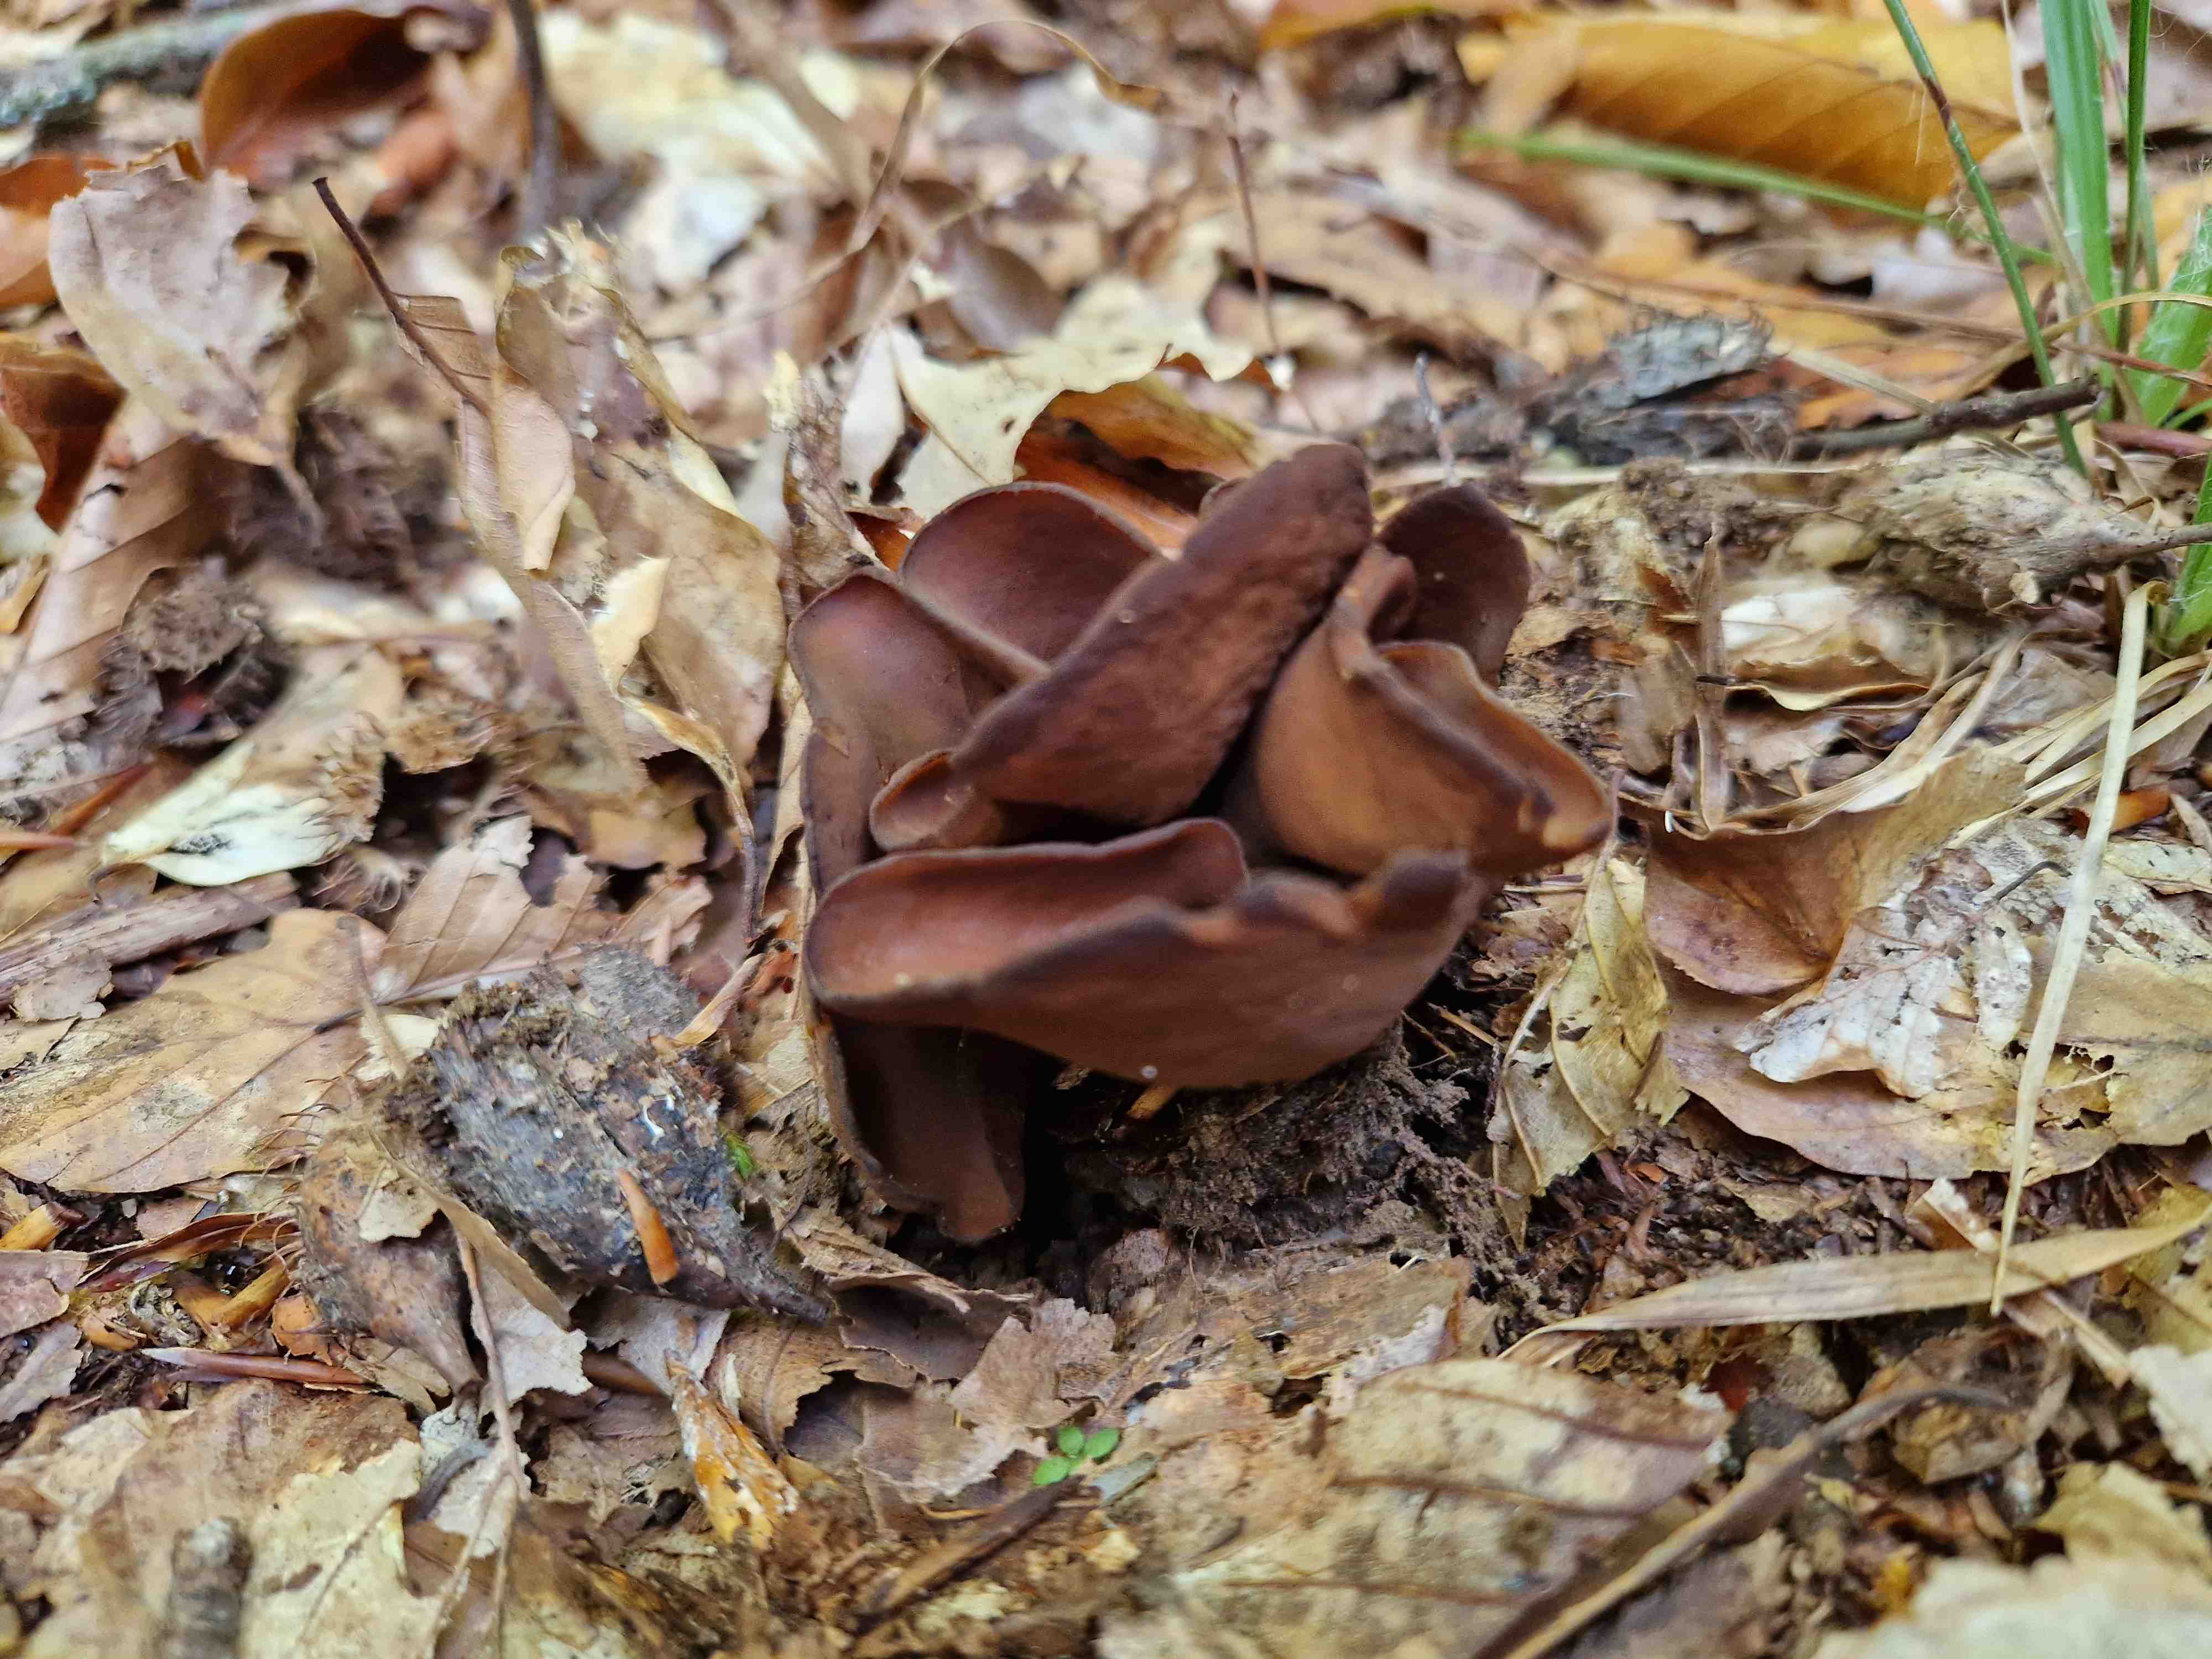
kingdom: Fungi
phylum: Ascomycota
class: Pezizomycetes
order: Pezizales
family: Otideaceae
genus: Otidea
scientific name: Otidea bufonia
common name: brun ørebæger
